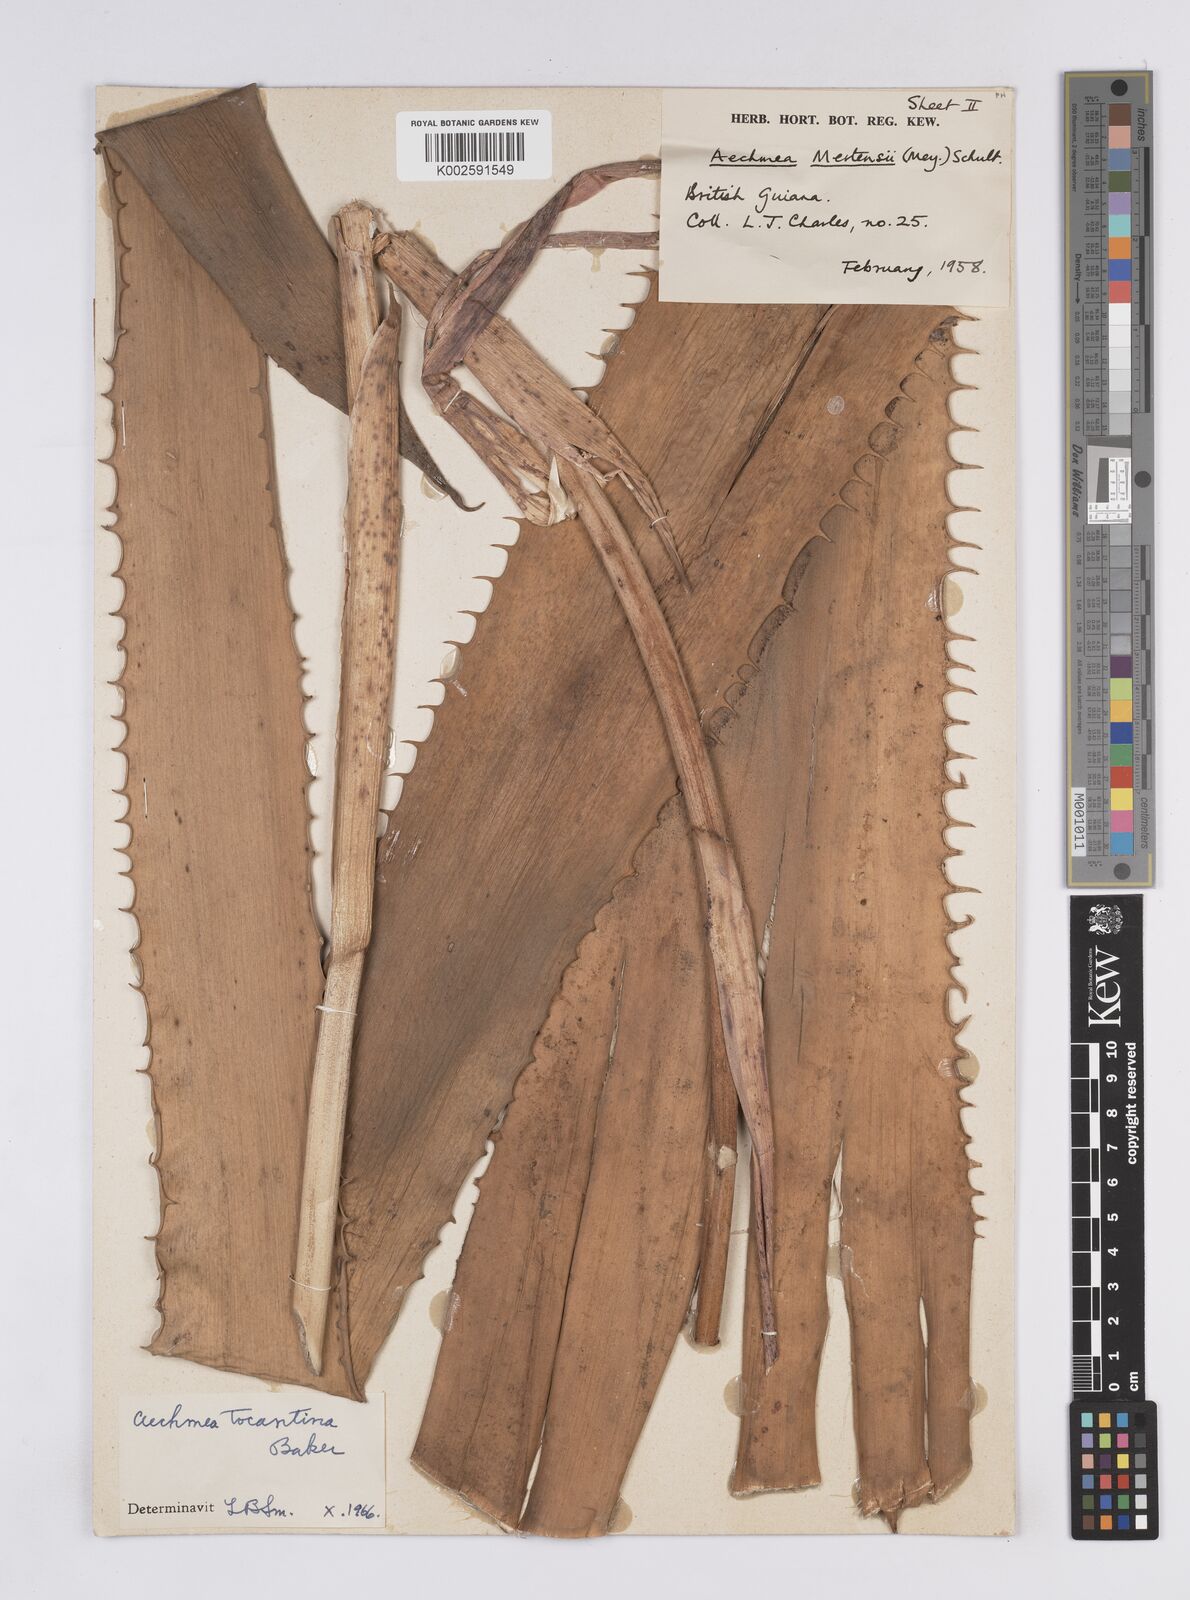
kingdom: Plantae
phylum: Tracheophyta
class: Liliopsida
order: Poales
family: Bromeliaceae
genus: Aechmea
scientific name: Aechmea tocantina
